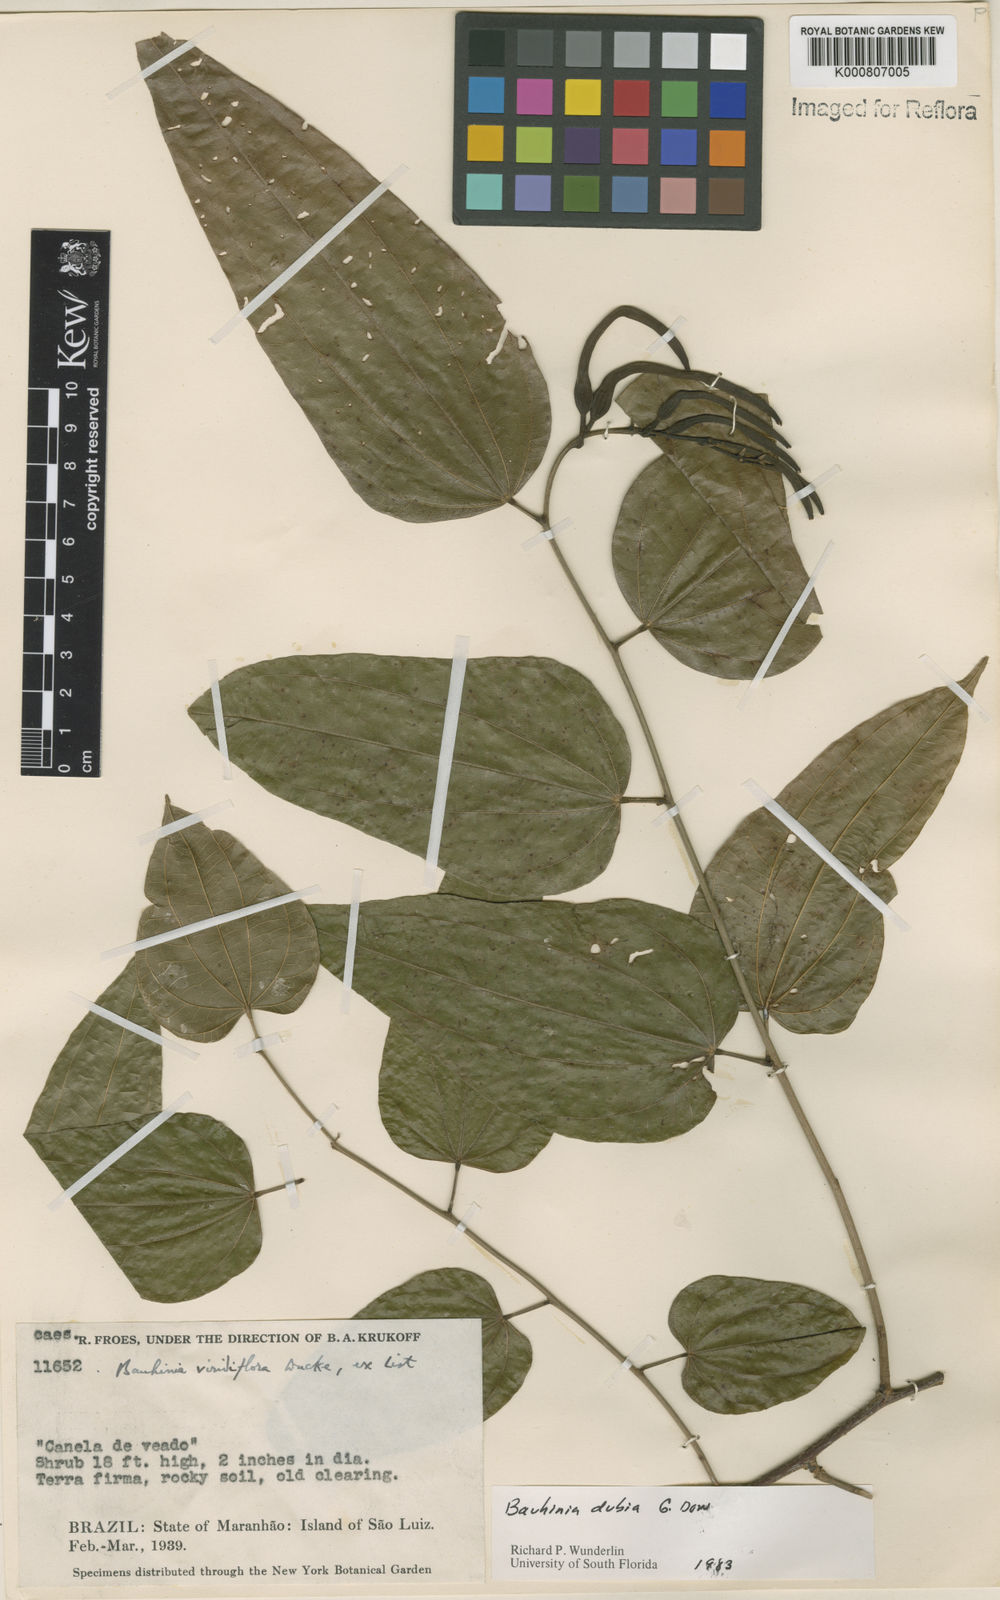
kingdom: Plantae
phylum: Tracheophyta
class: Magnoliopsida
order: Fabales
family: Fabaceae
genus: Bauhinia
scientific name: Bauhinia dubia
